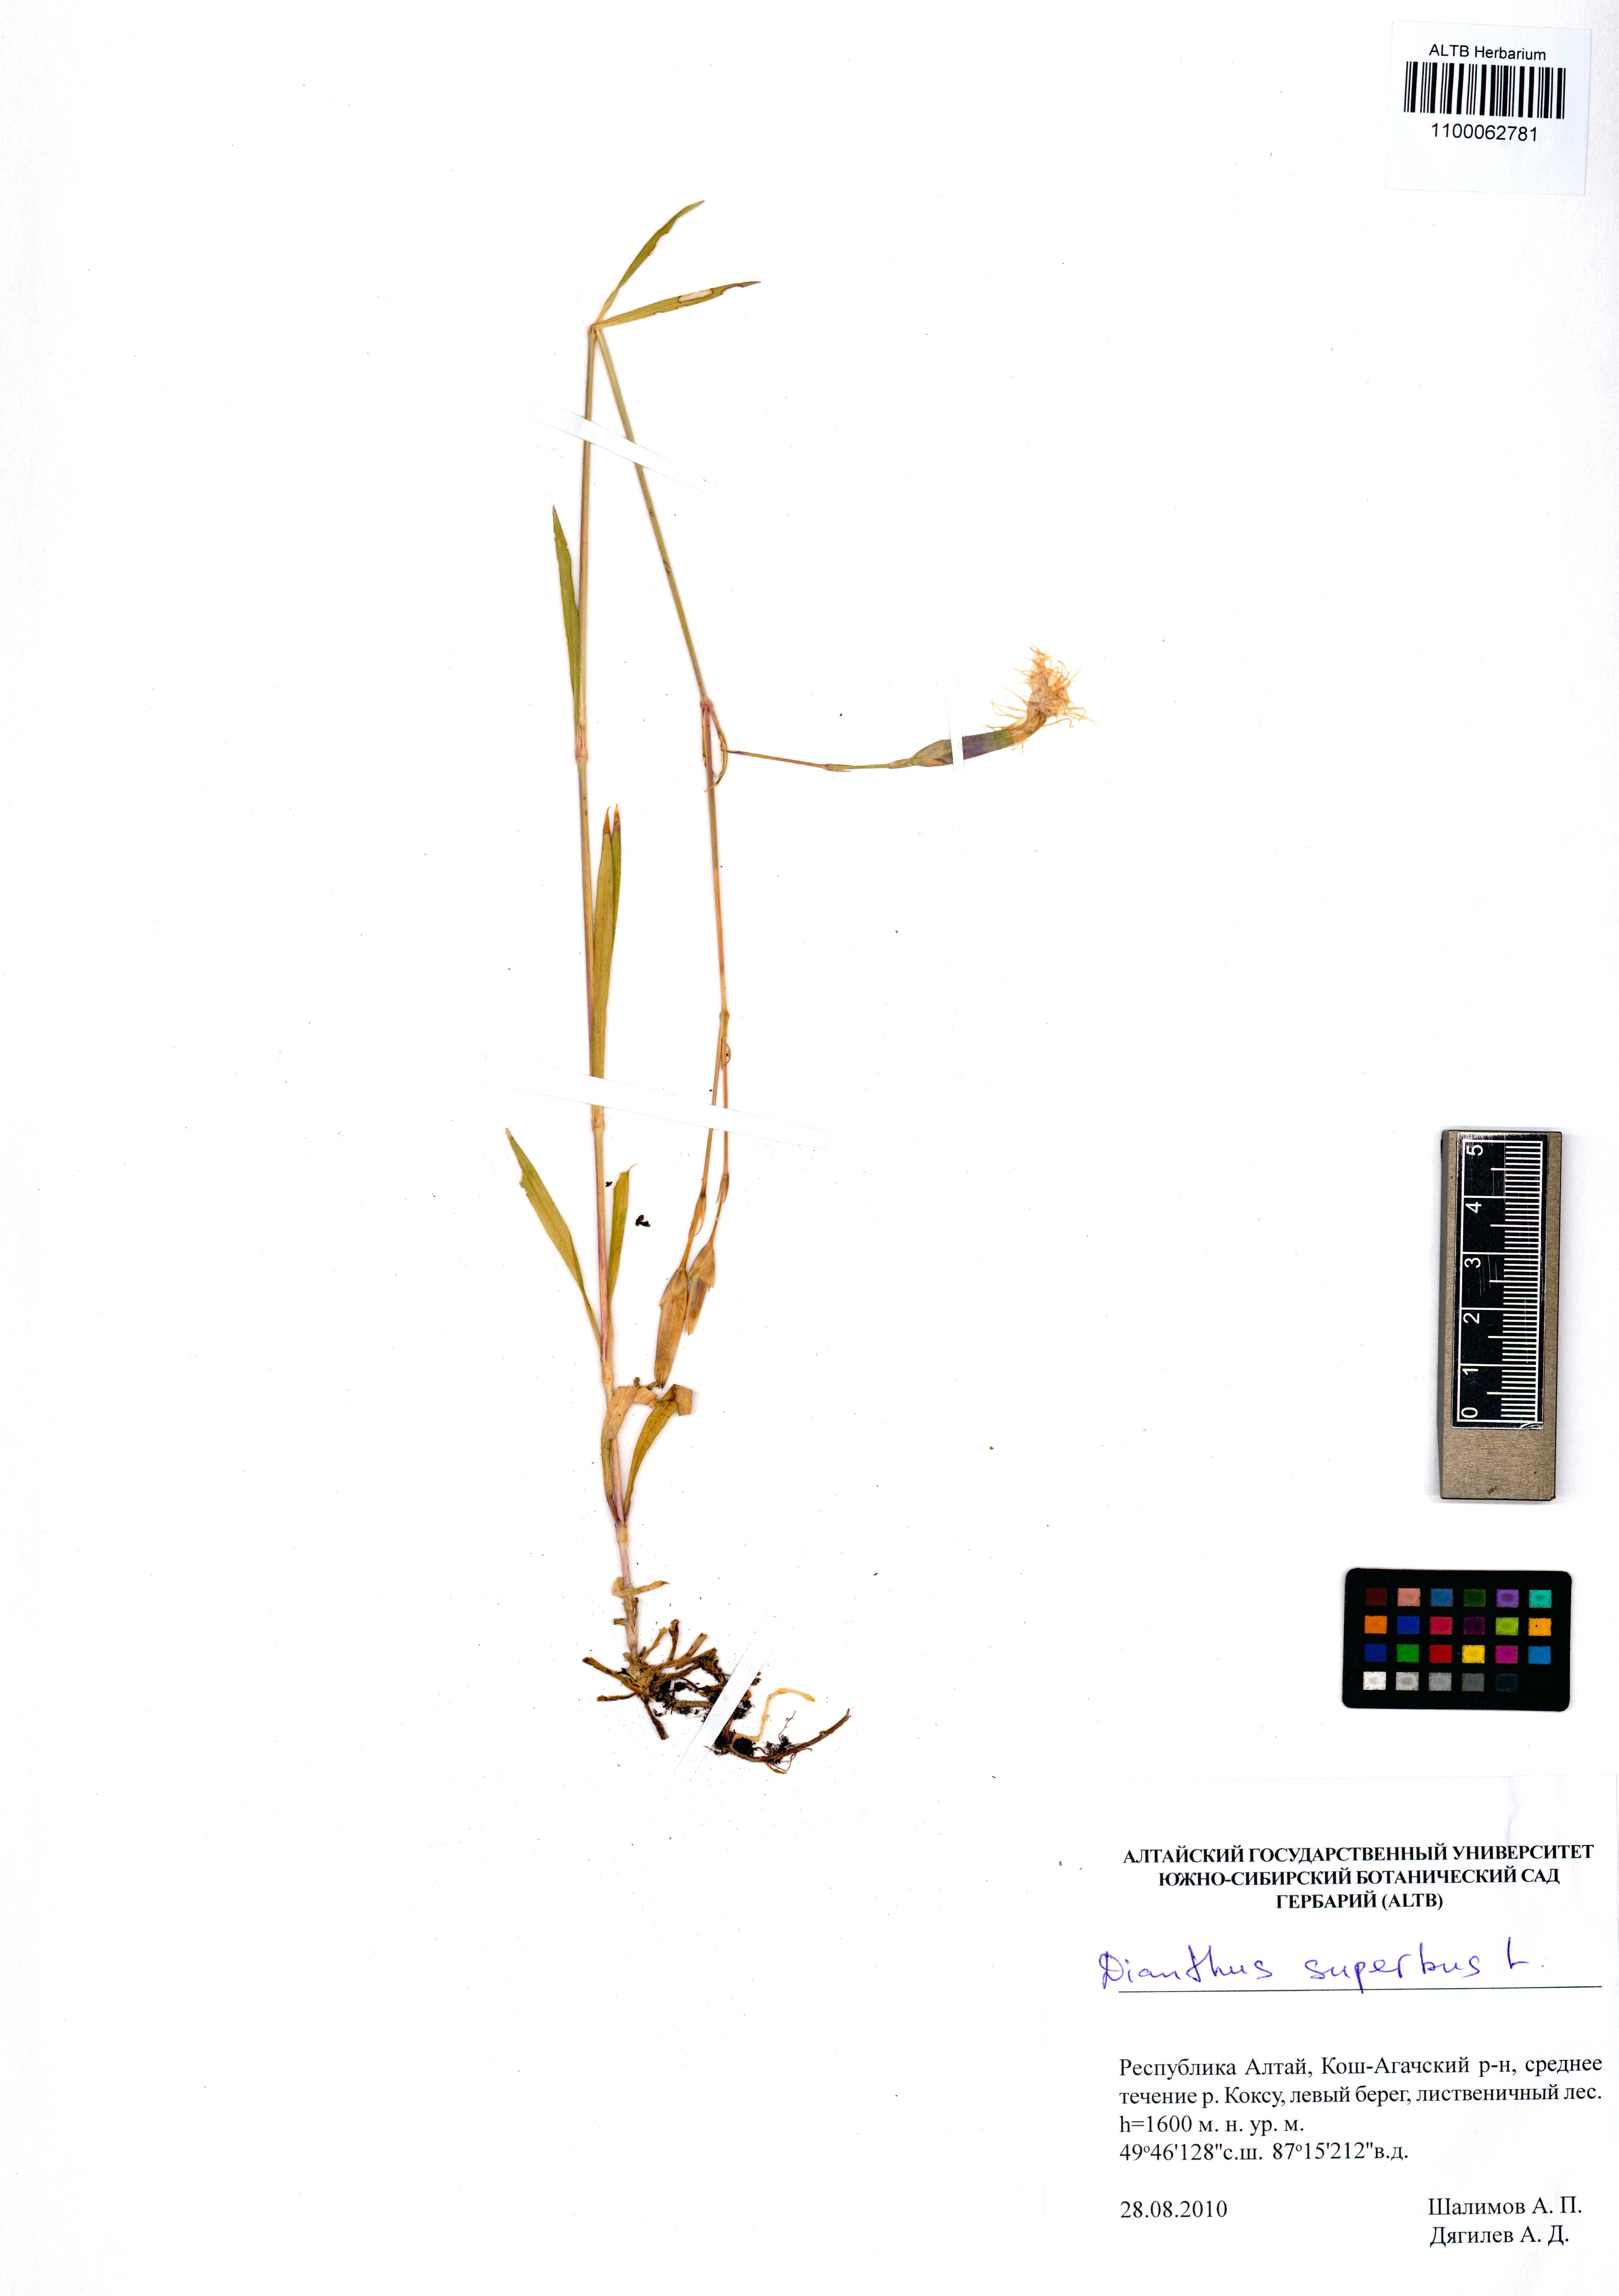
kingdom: Plantae
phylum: Tracheophyta
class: Magnoliopsida
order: Caryophyllales
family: Caryophyllaceae
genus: Dianthus
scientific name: Dianthus superbus
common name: Fringed pink
